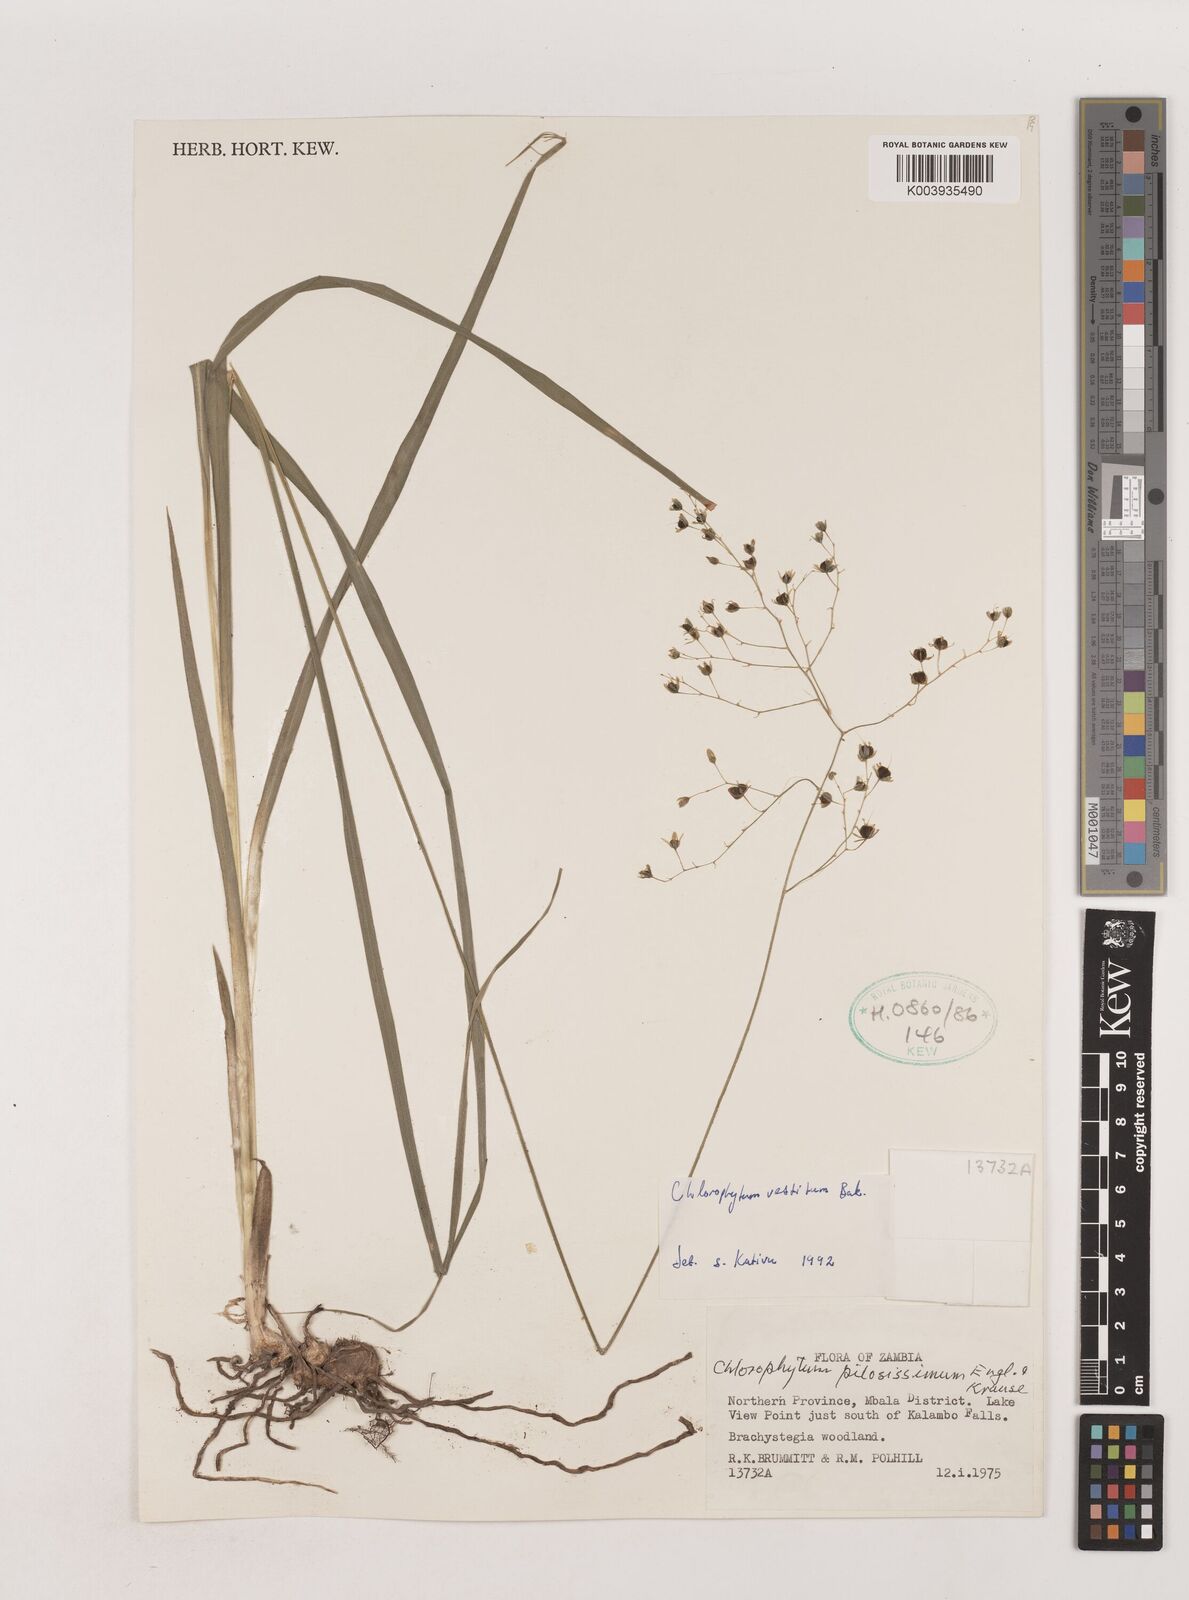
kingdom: Plantae
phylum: Tracheophyta
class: Liliopsida
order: Asparagales
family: Asparagaceae
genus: Chlorophytum
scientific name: Chlorophytum vestitum
